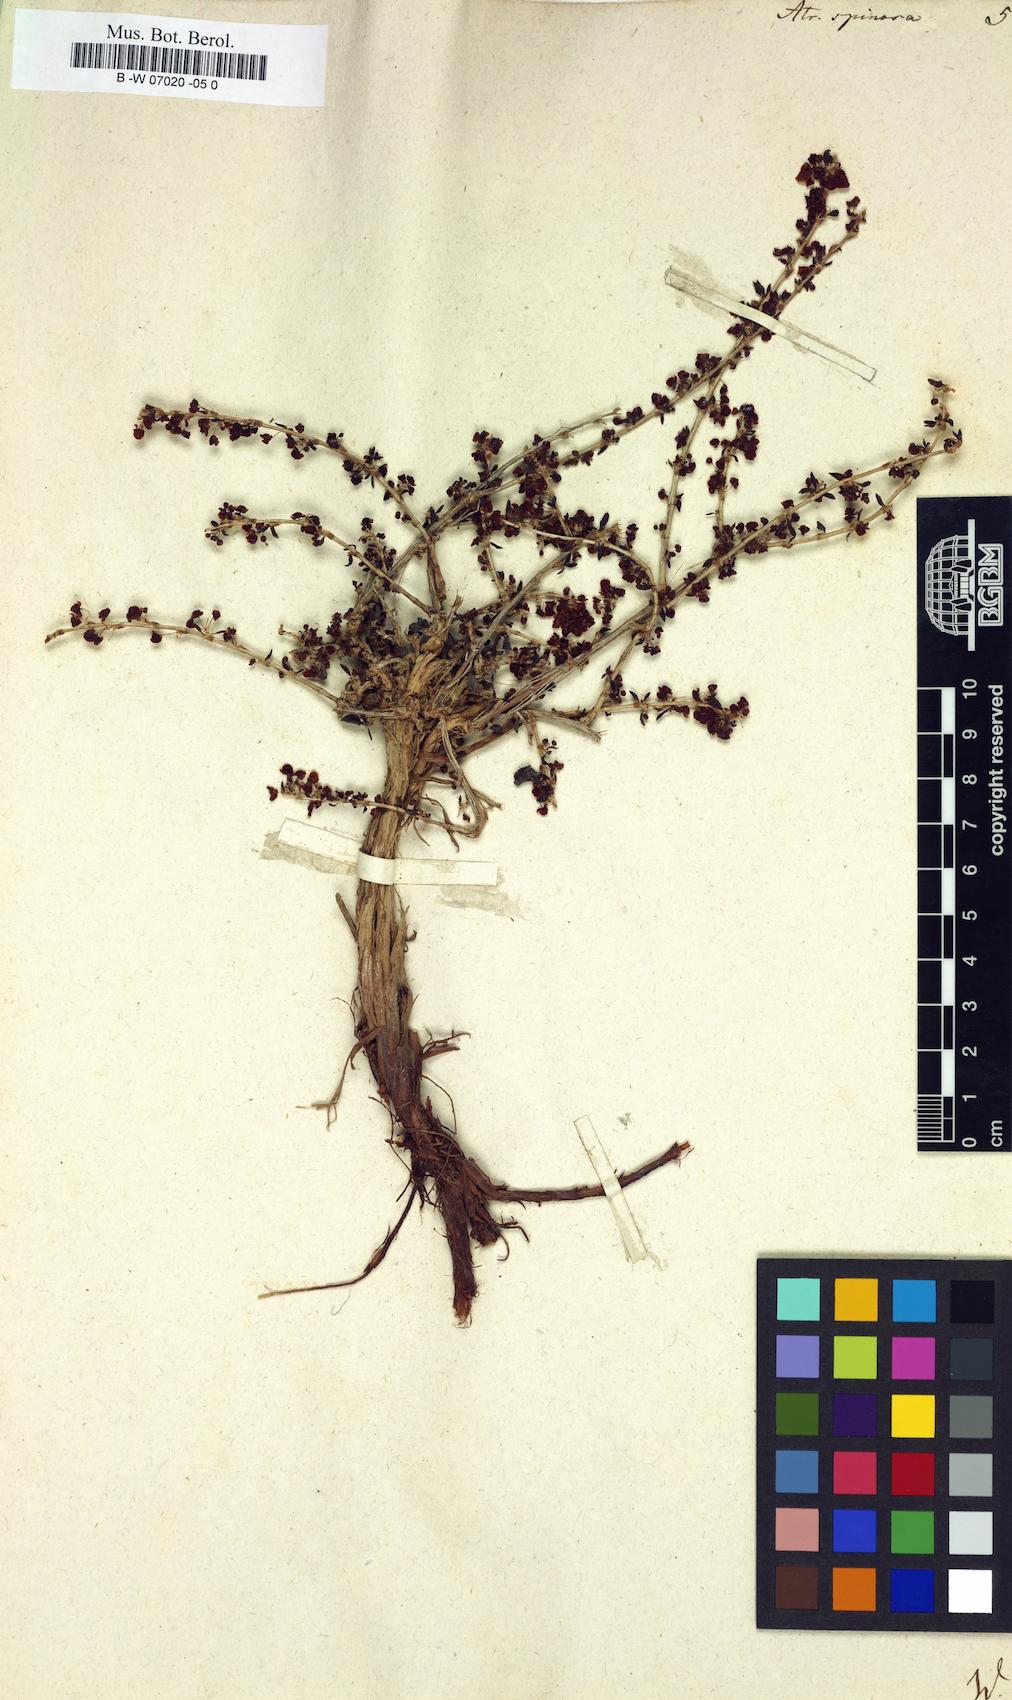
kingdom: Plantae
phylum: Tracheophyta
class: Magnoliopsida
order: Caryophyllales
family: Polygonaceae
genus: Atraphaxis
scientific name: Atraphaxis spinosa
